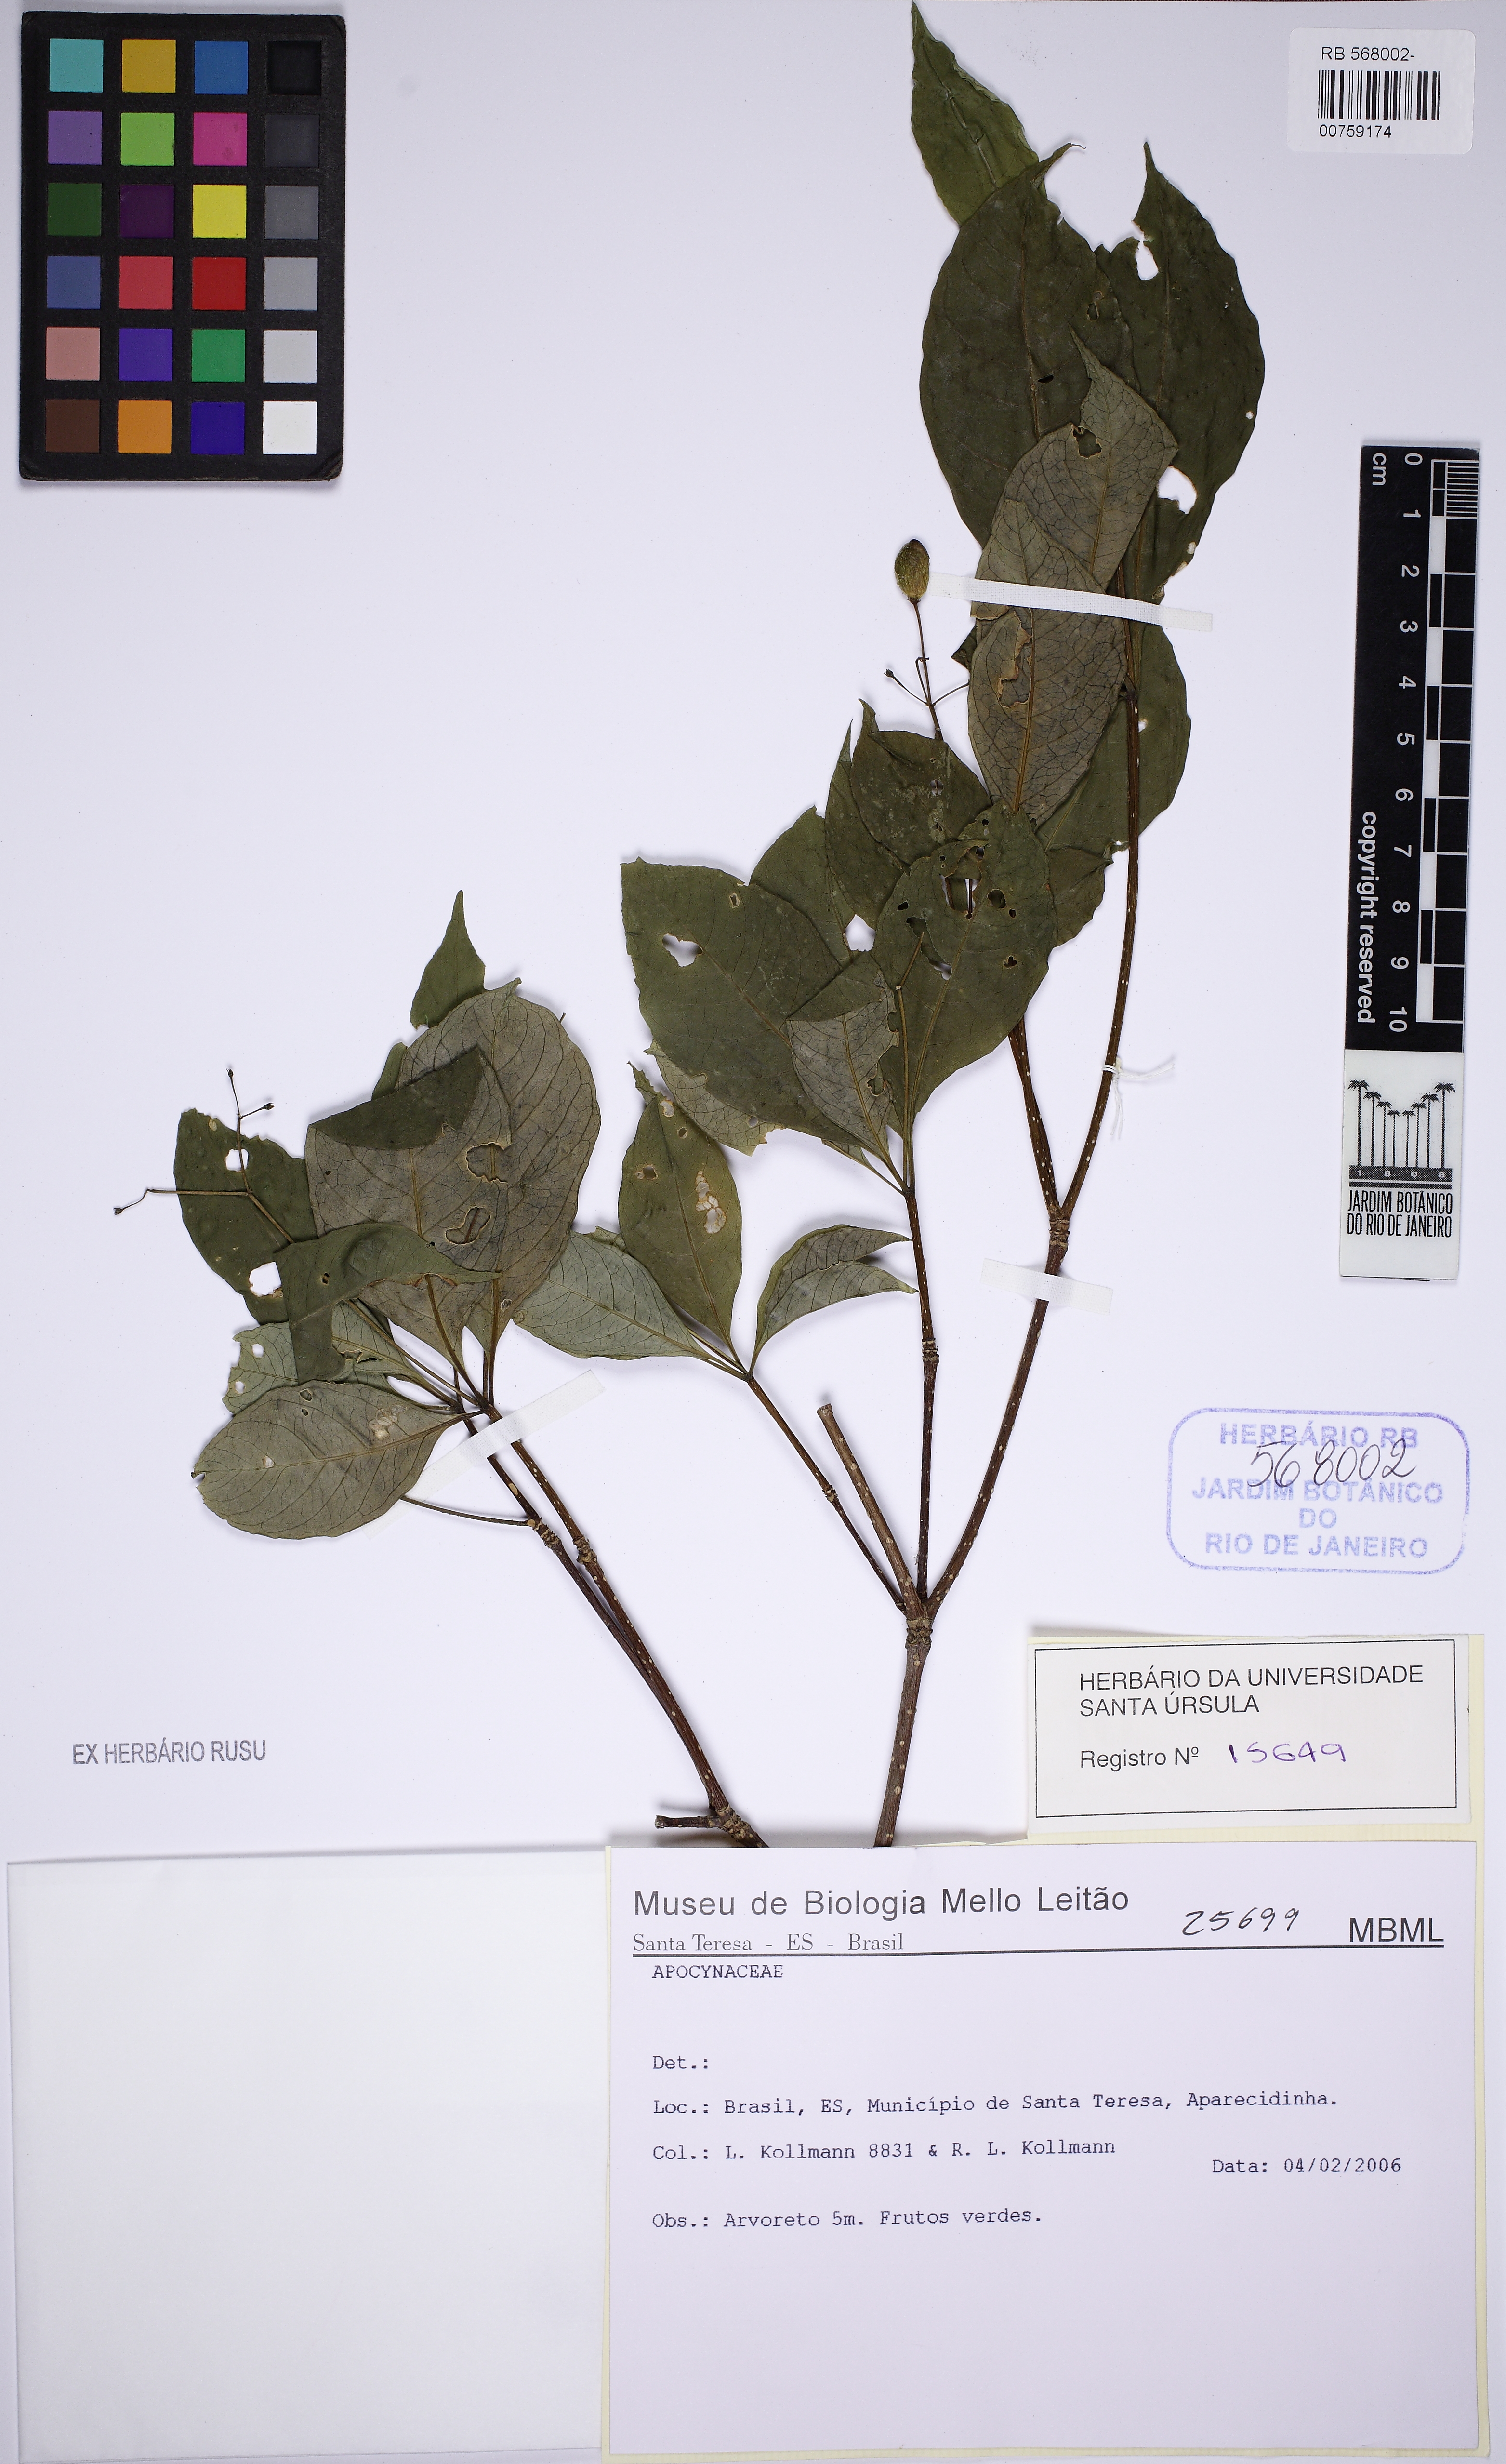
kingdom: Plantae
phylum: Tracheophyta
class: Magnoliopsida
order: Gentianales
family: Apocynaceae
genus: Rauvolfia
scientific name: Rauvolfia
